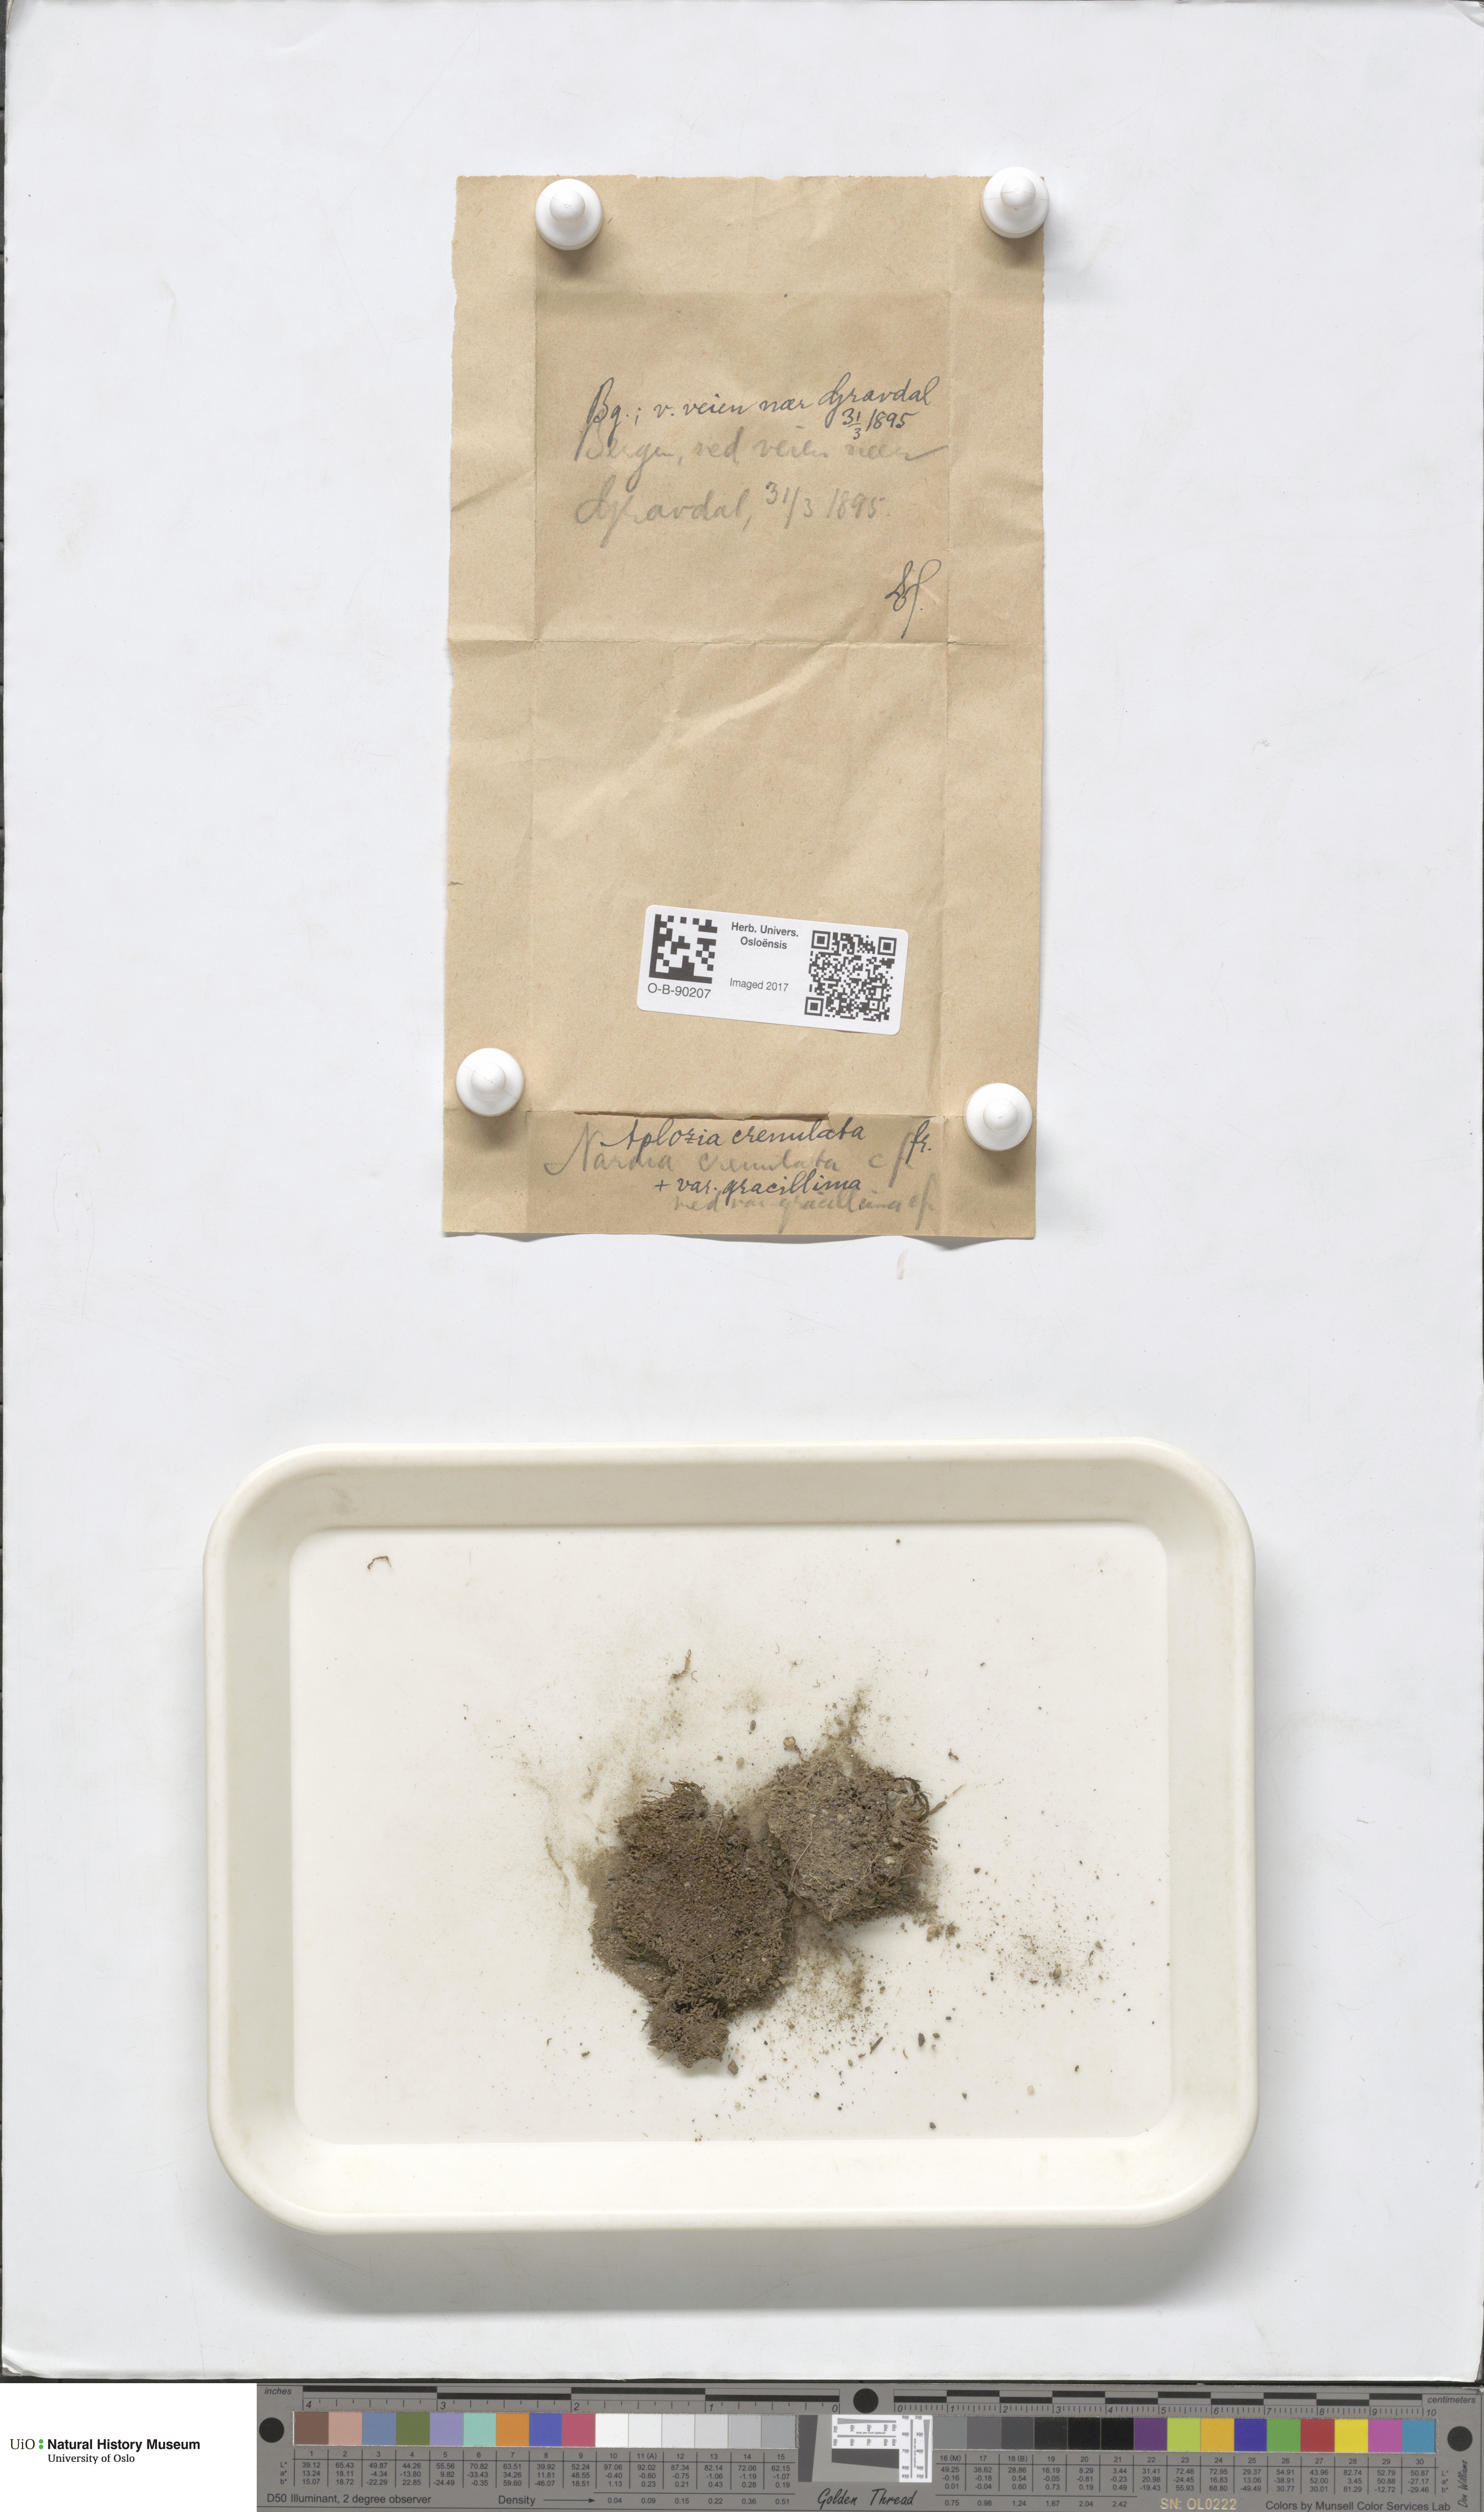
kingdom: Plantae
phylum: Marchantiophyta
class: Jungermanniopsida
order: Jungermanniales
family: Solenostomataceae
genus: Solenostoma
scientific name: Solenostoma gracillimum
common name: Crenulated flapwort
